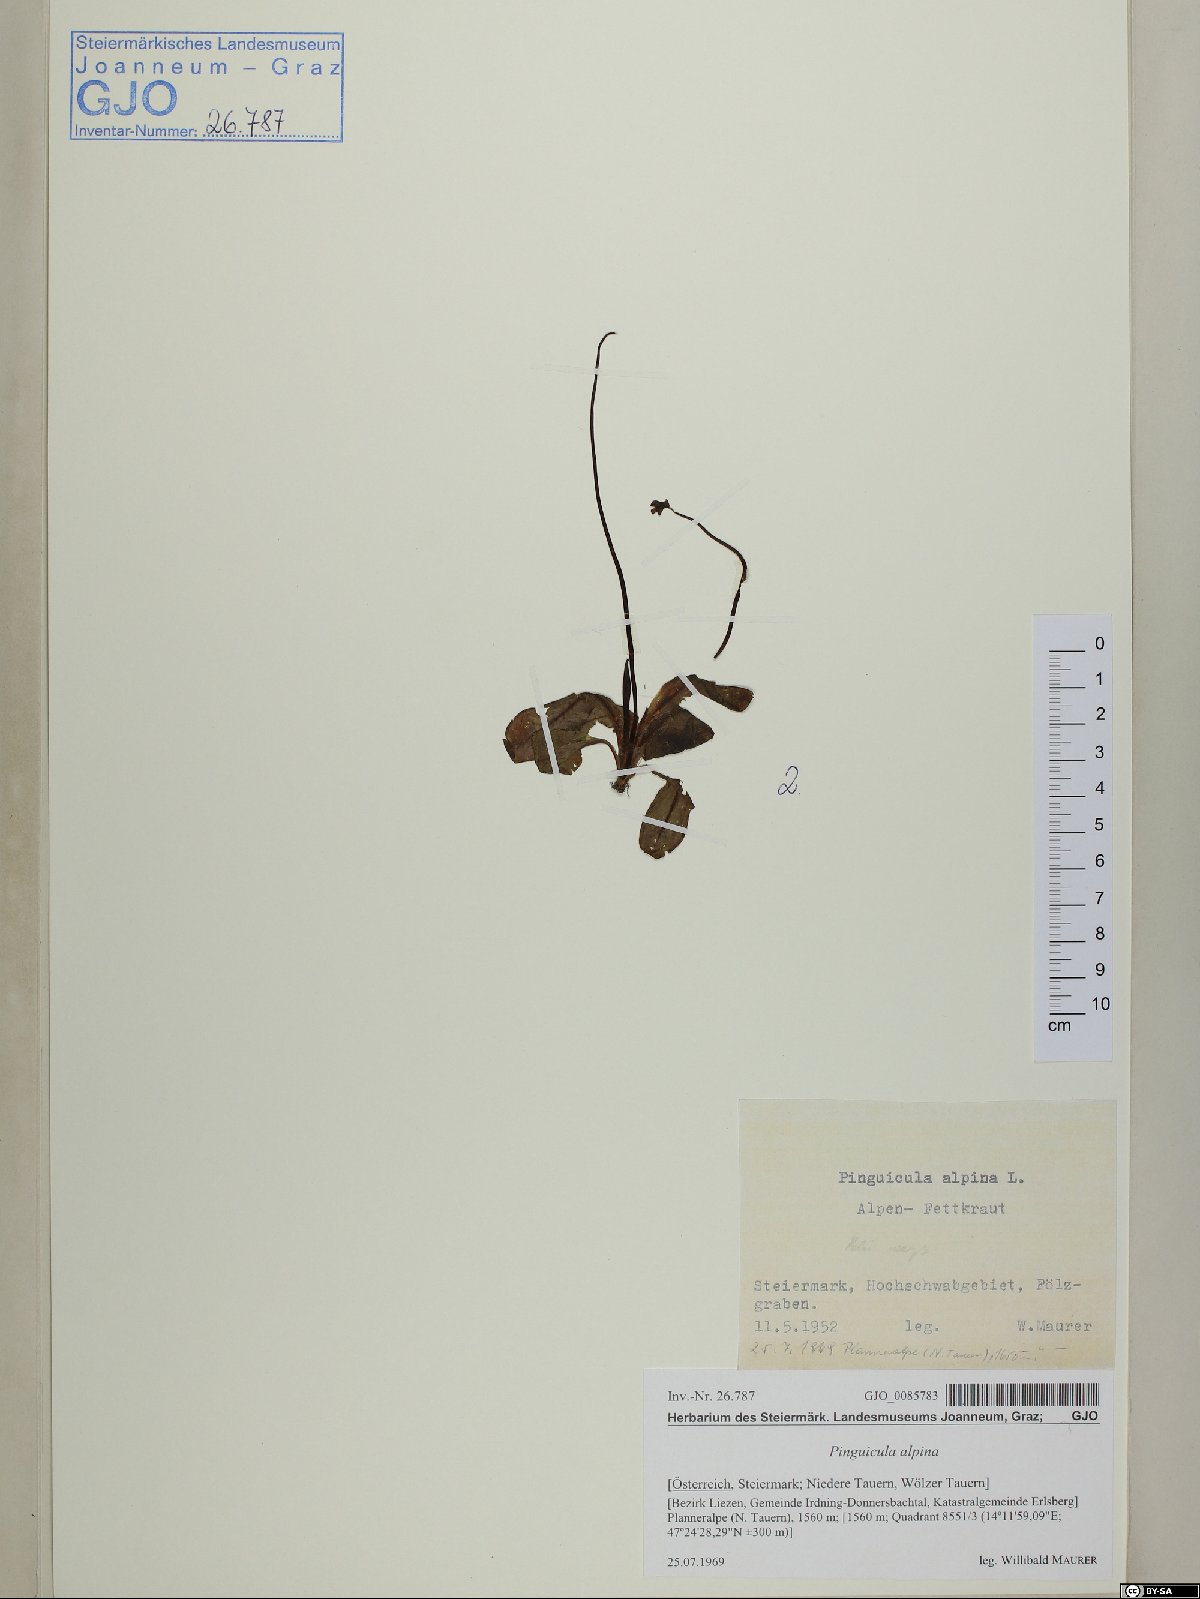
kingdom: Plantae
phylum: Tracheophyta
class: Magnoliopsida
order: Lamiales
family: Lentibulariaceae
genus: Pinguicula
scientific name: Pinguicula alpina
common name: Alpine butterwort
